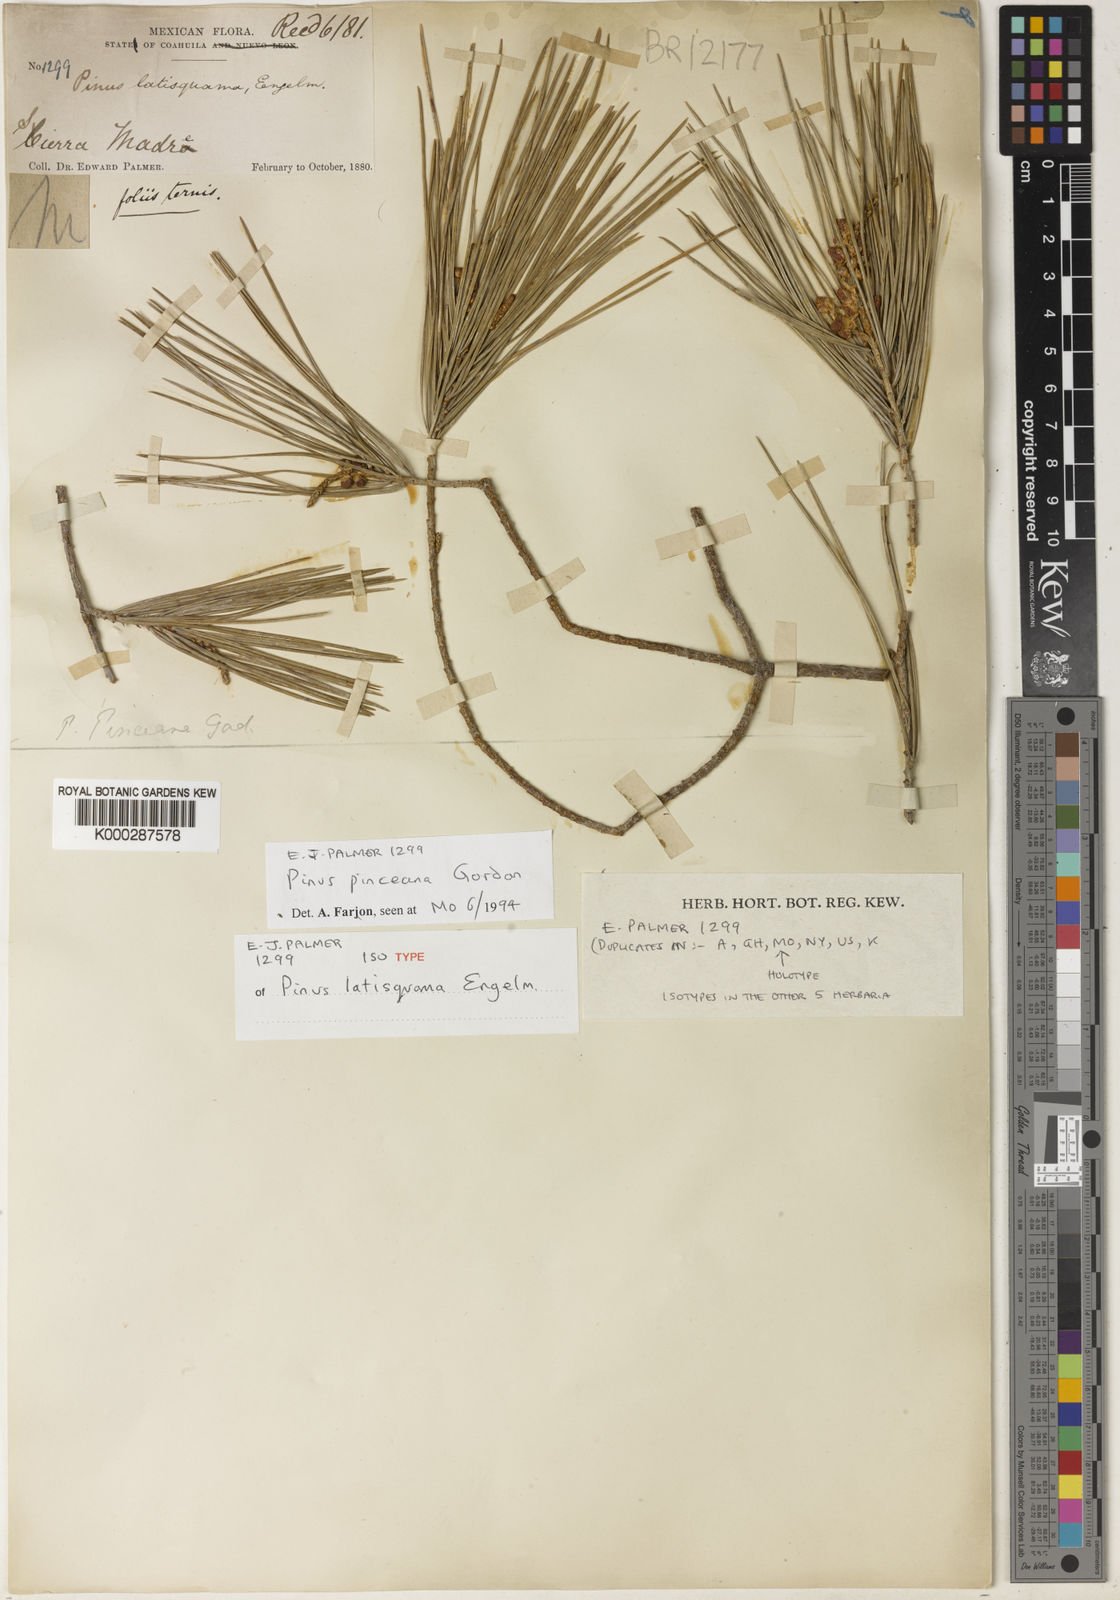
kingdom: Plantae
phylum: Tracheophyta
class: Pinopsida
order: Pinales
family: Pinaceae
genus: Pinus
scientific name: Pinus pinceana
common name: Pince's pinyon pine
